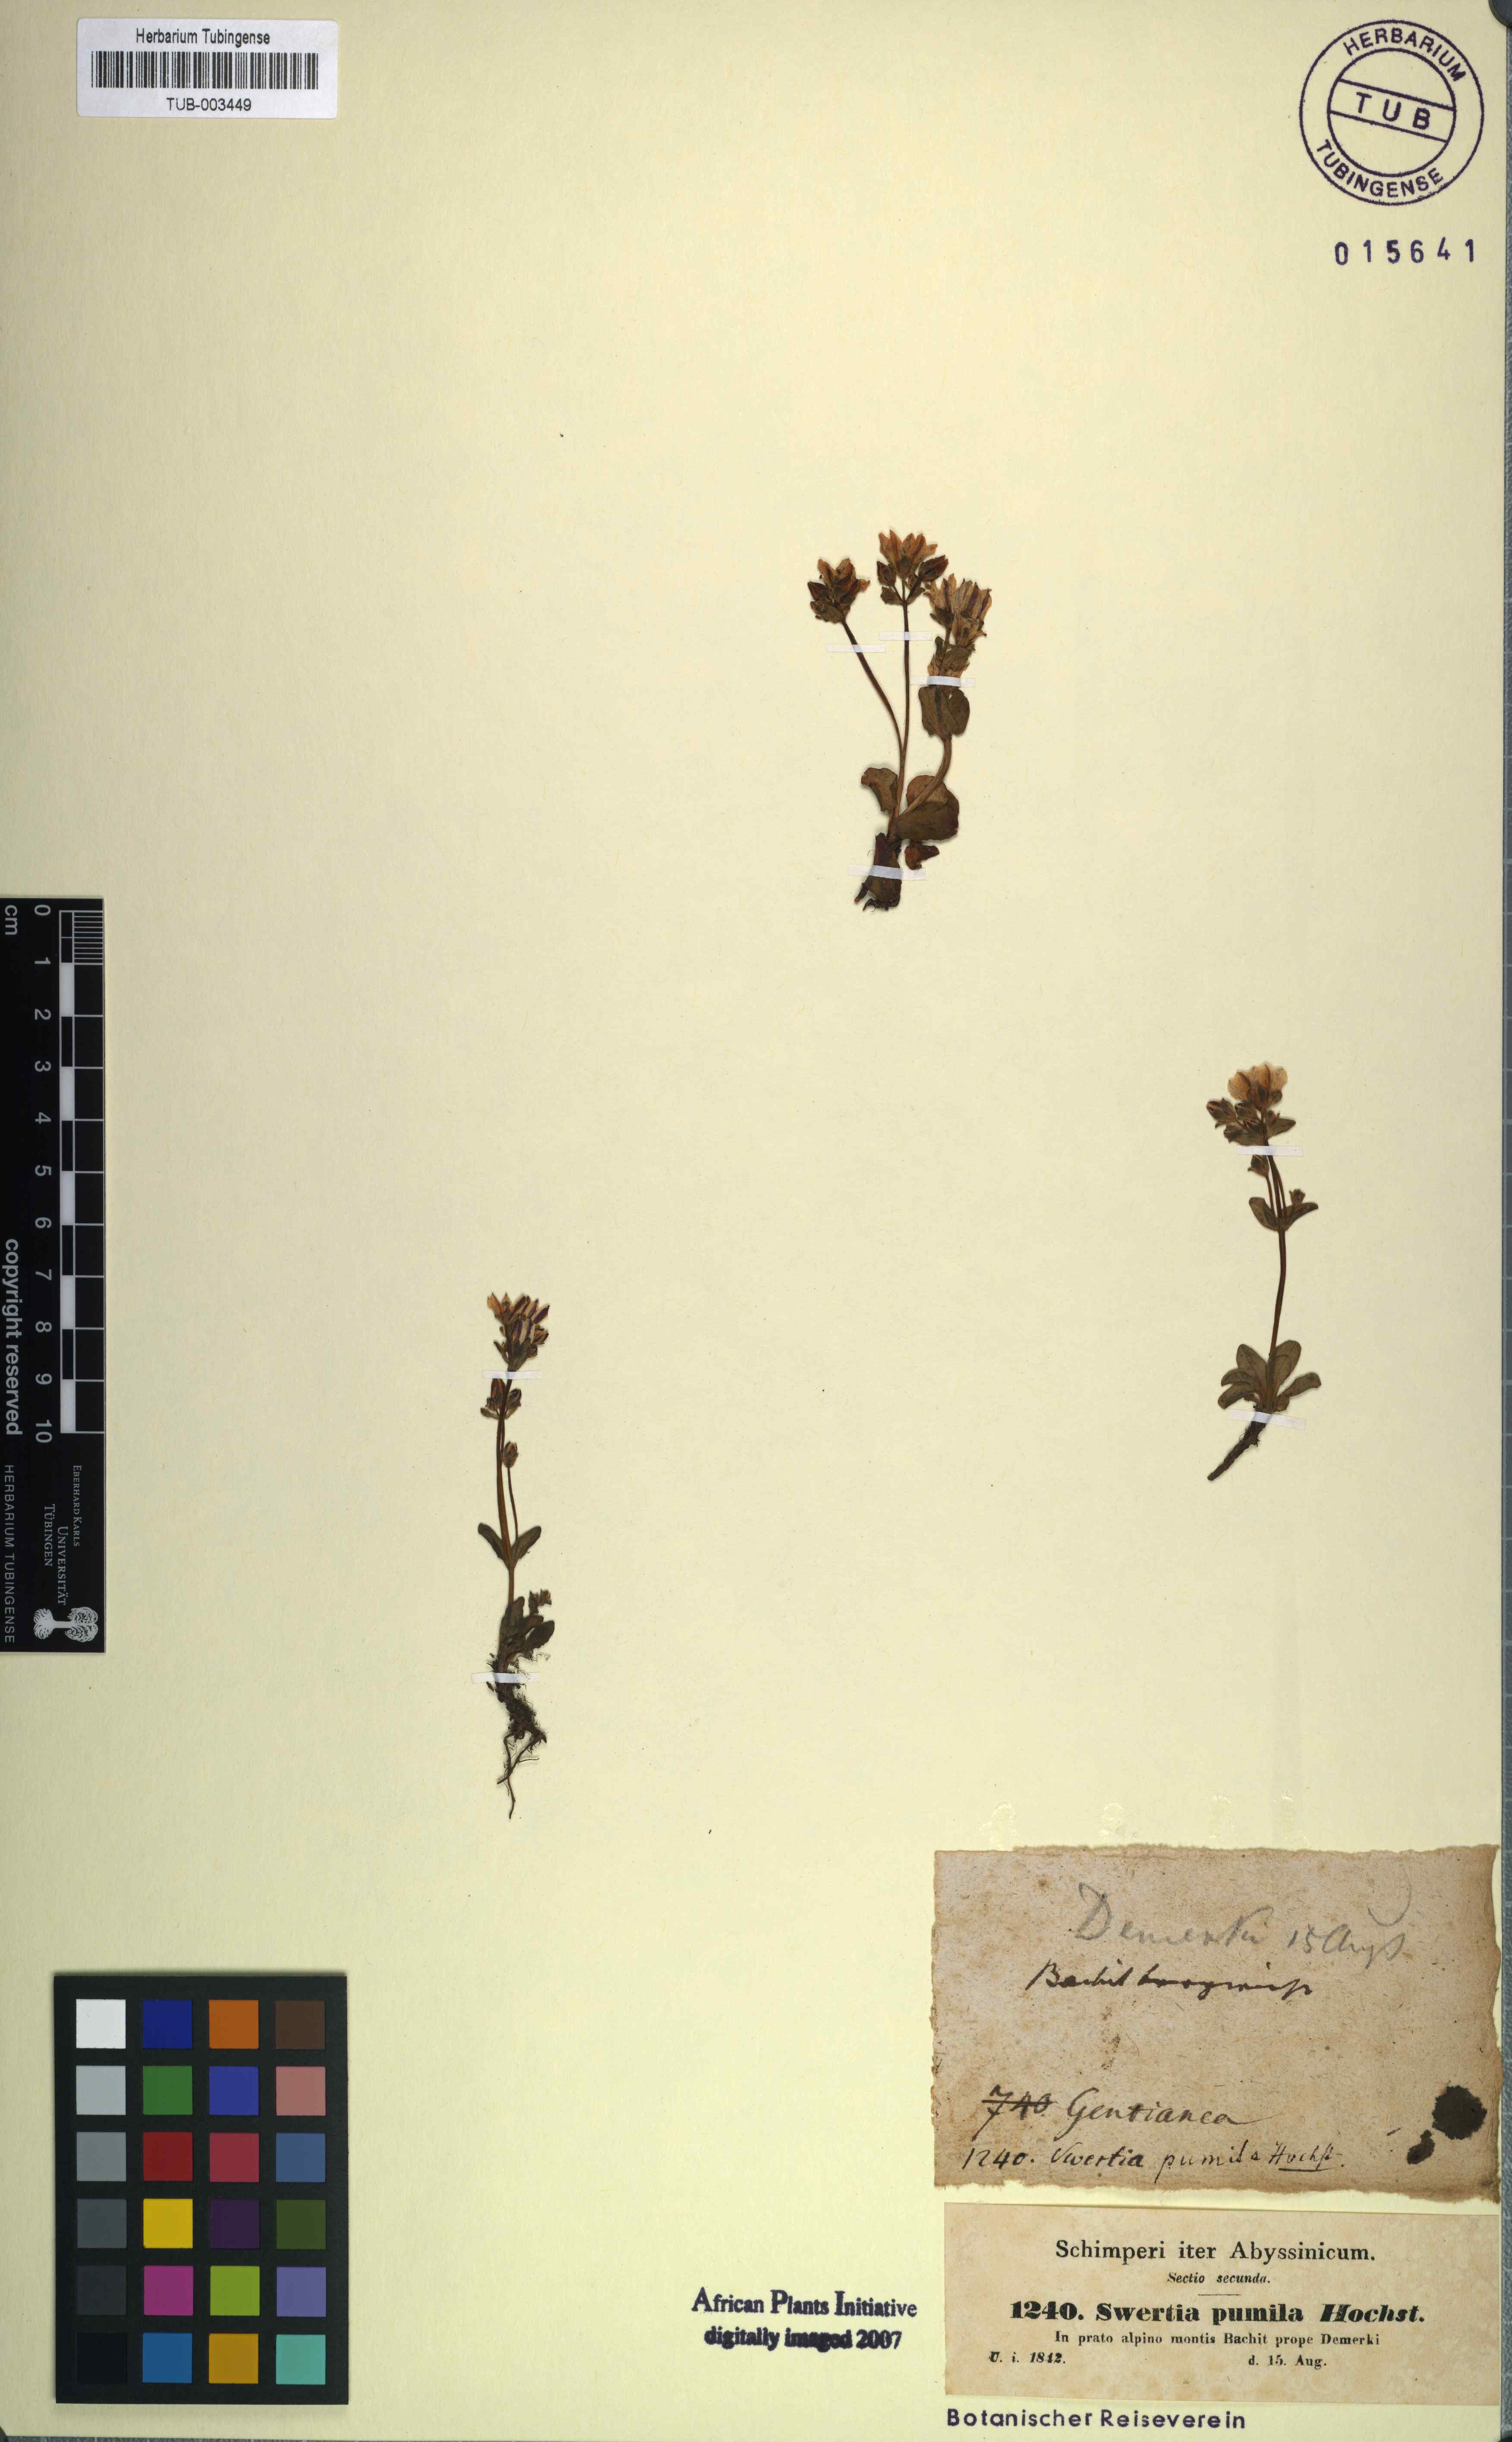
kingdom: Plantae
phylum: Tracheophyta
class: Magnoliopsida
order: Gentianales
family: Gentianaceae
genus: Swertia
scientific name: Swertia pumila
